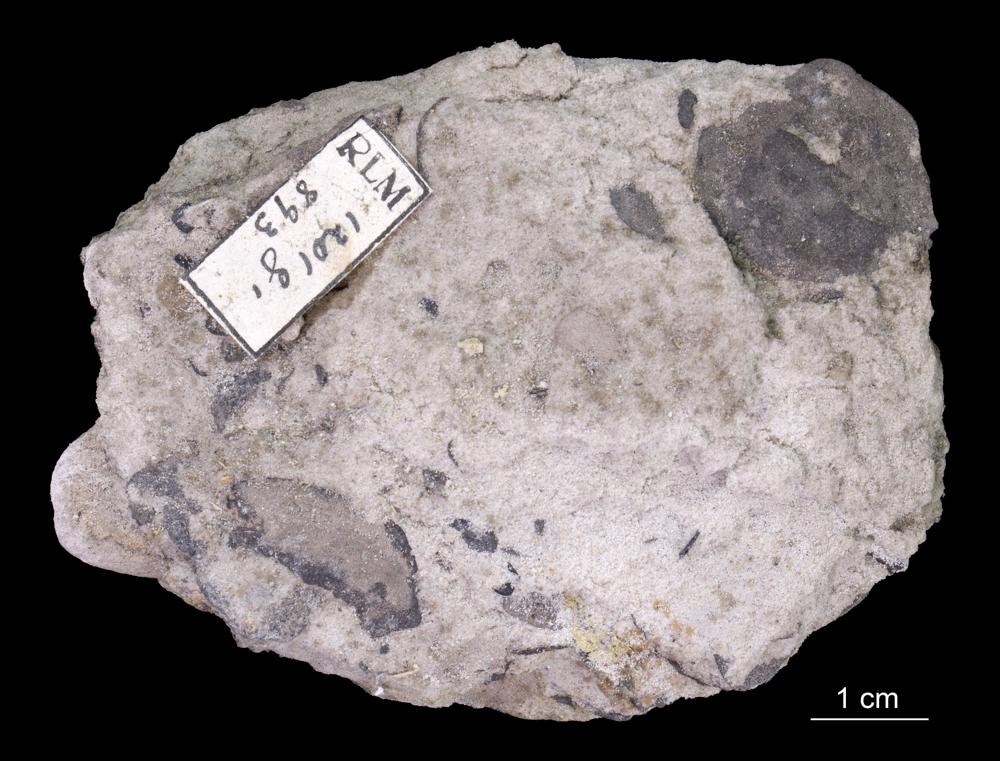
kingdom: Animalia
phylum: Brachiopoda
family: Paterinidae
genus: Mickwitzia
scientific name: Mickwitzia
